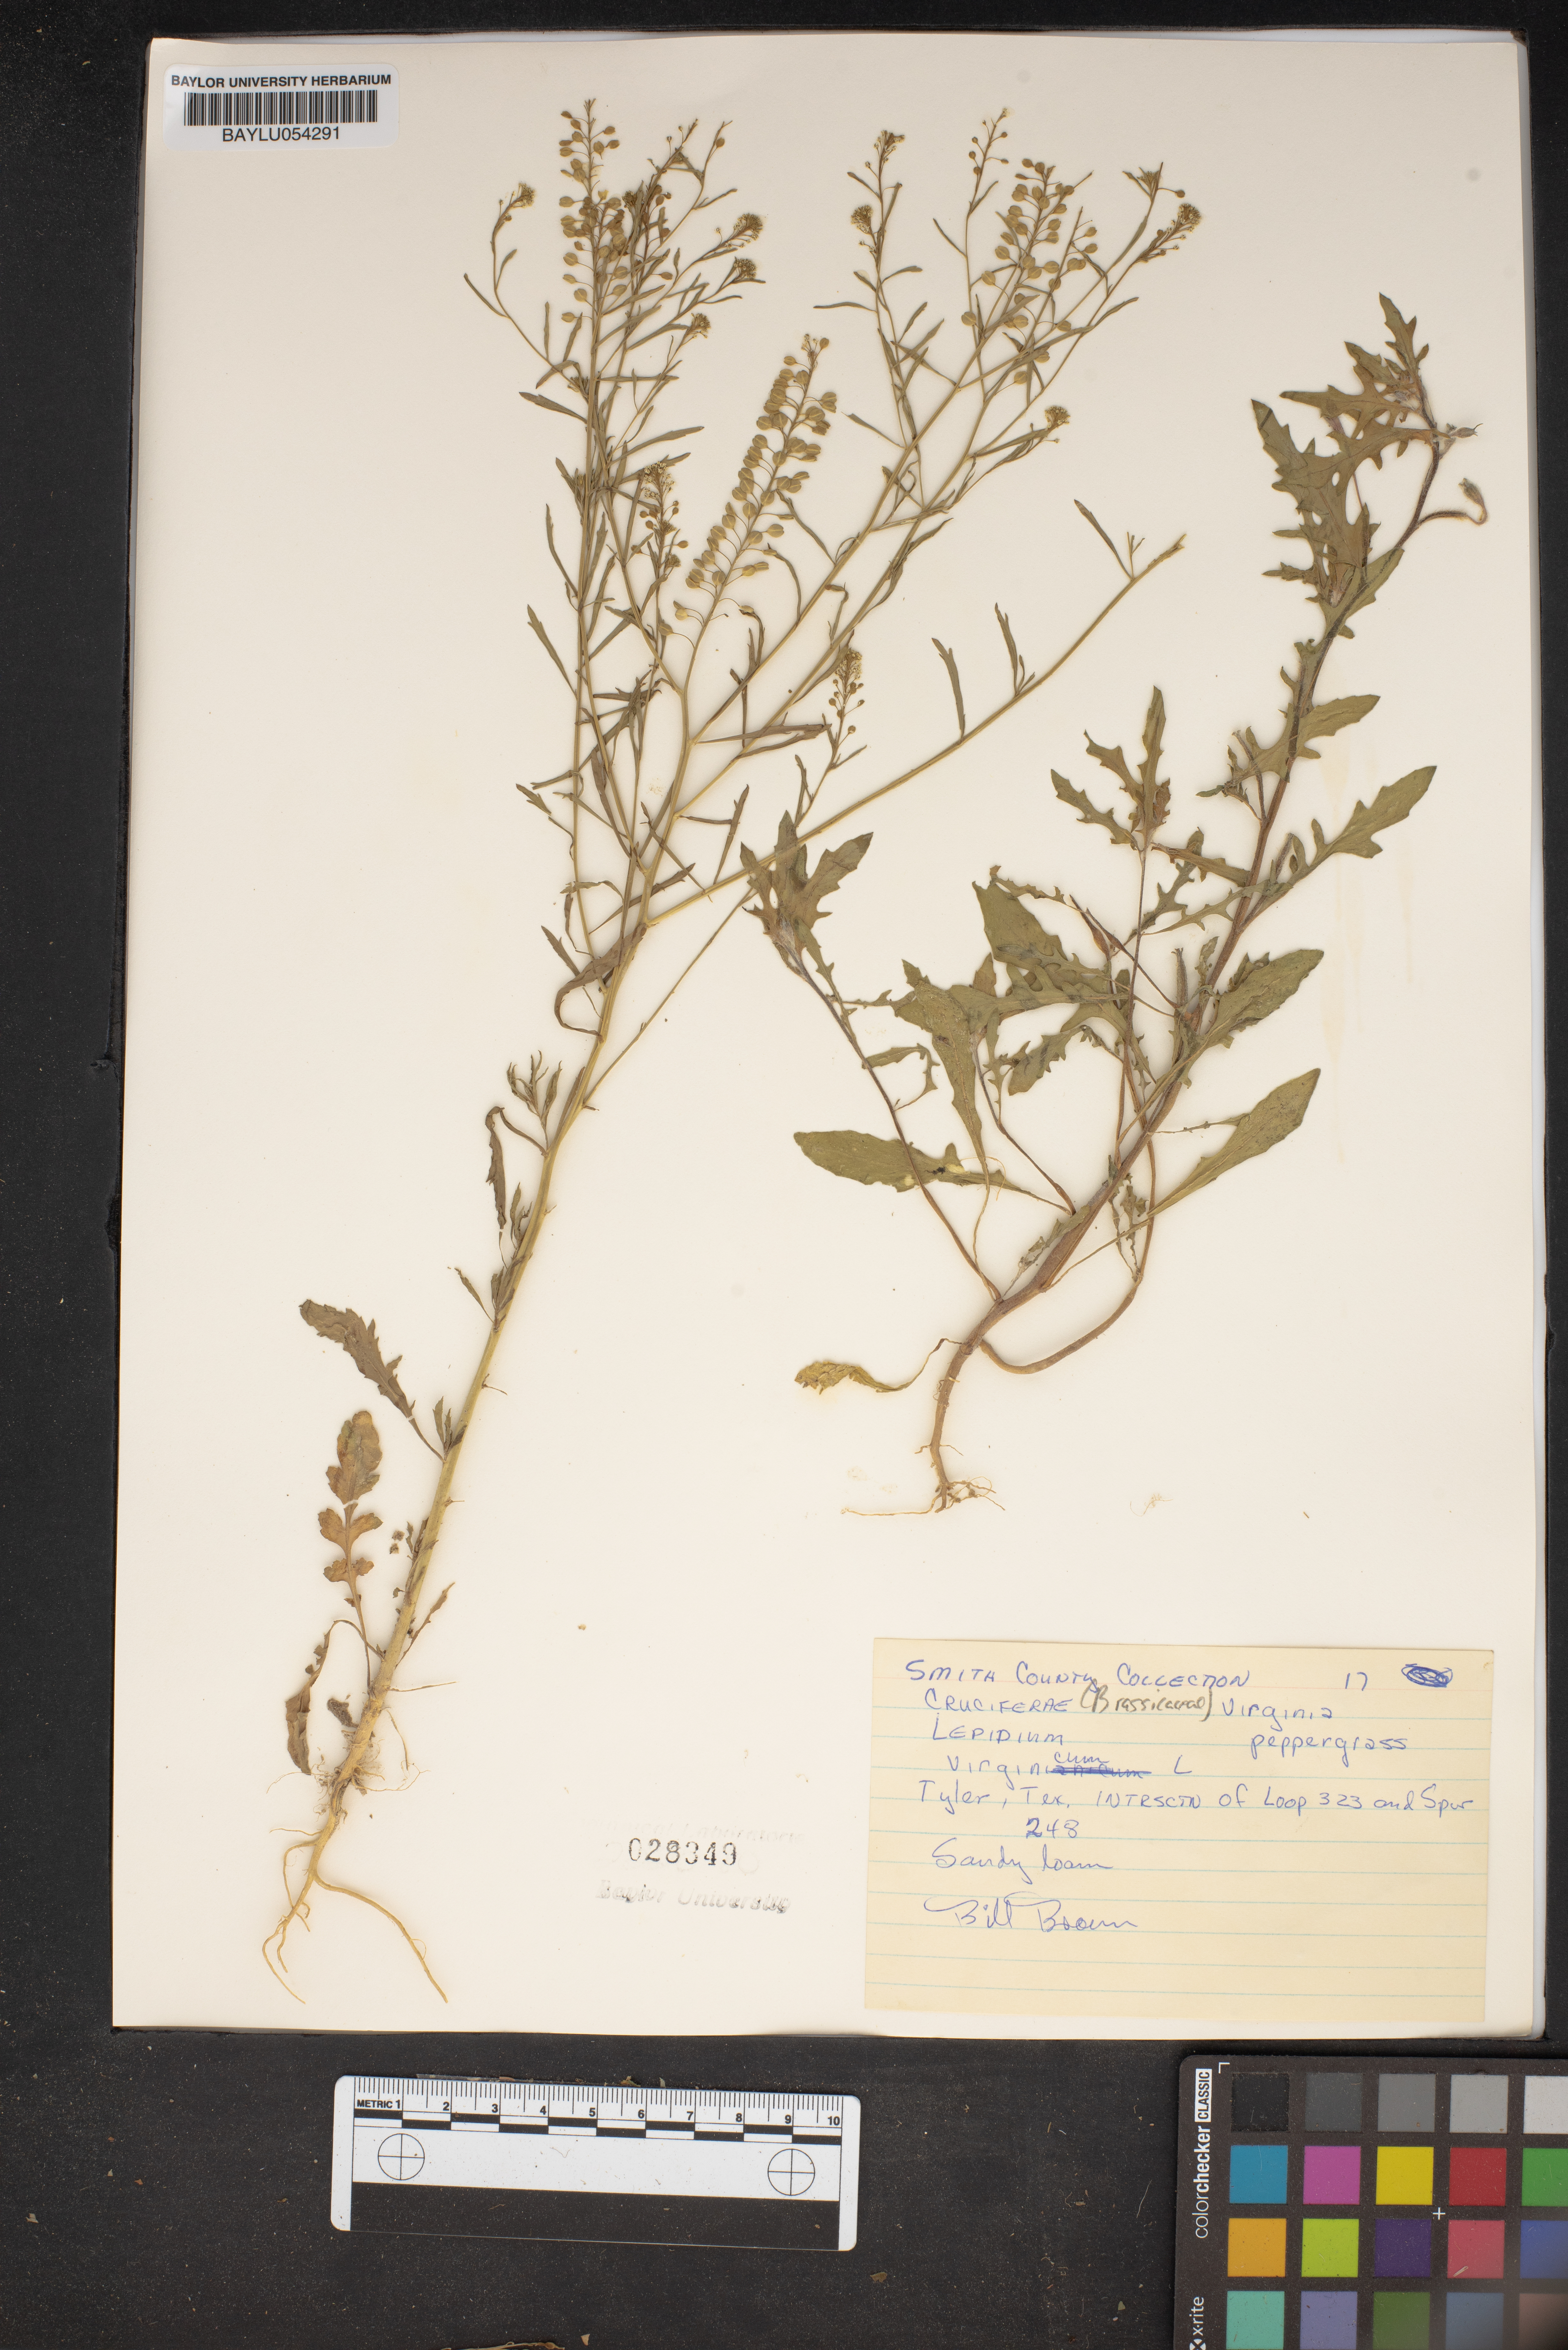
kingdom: Plantae
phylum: Tracheophyta
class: Magnoliopsida
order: Brassicales
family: Brassicaceae
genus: Lepidium
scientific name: Lepidium virginicum
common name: Least pepperwort
